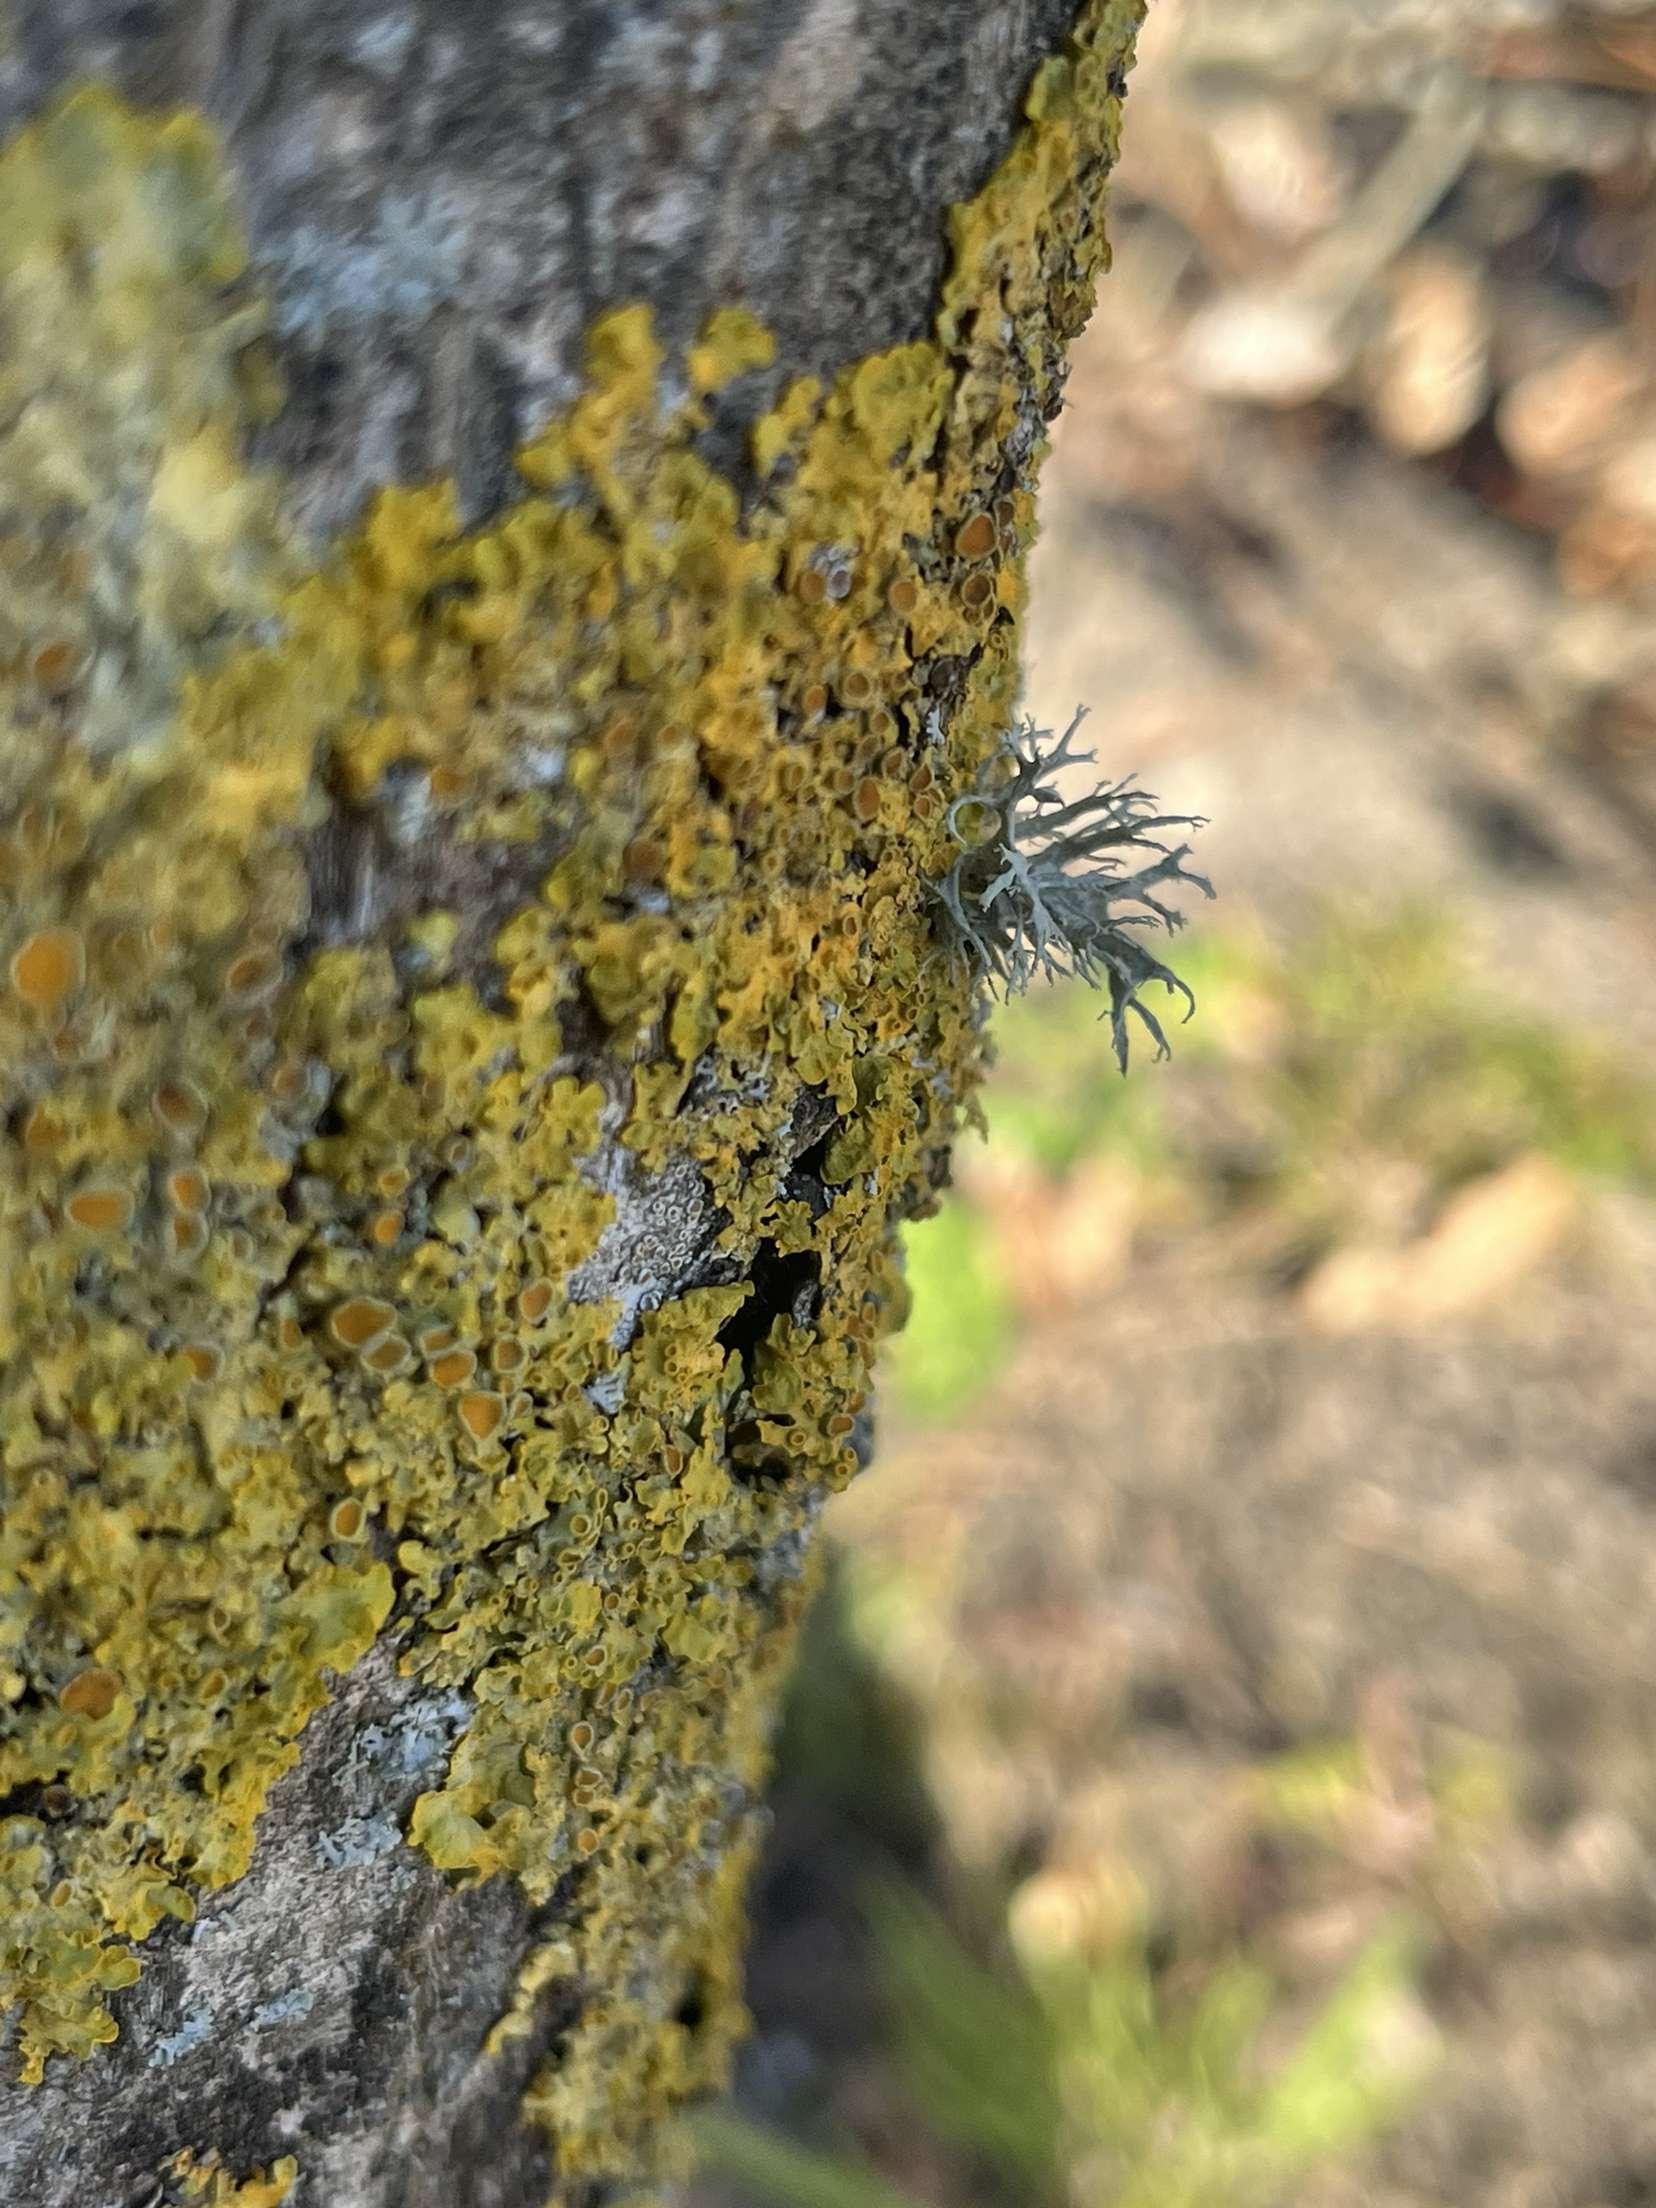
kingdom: Fungi
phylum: Ascomycota
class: Lecanoromycetes
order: Teloschistales
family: Teloschistaceae
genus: Xanthoria
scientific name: Xanthoria parietina
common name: Almindelig væggelav
